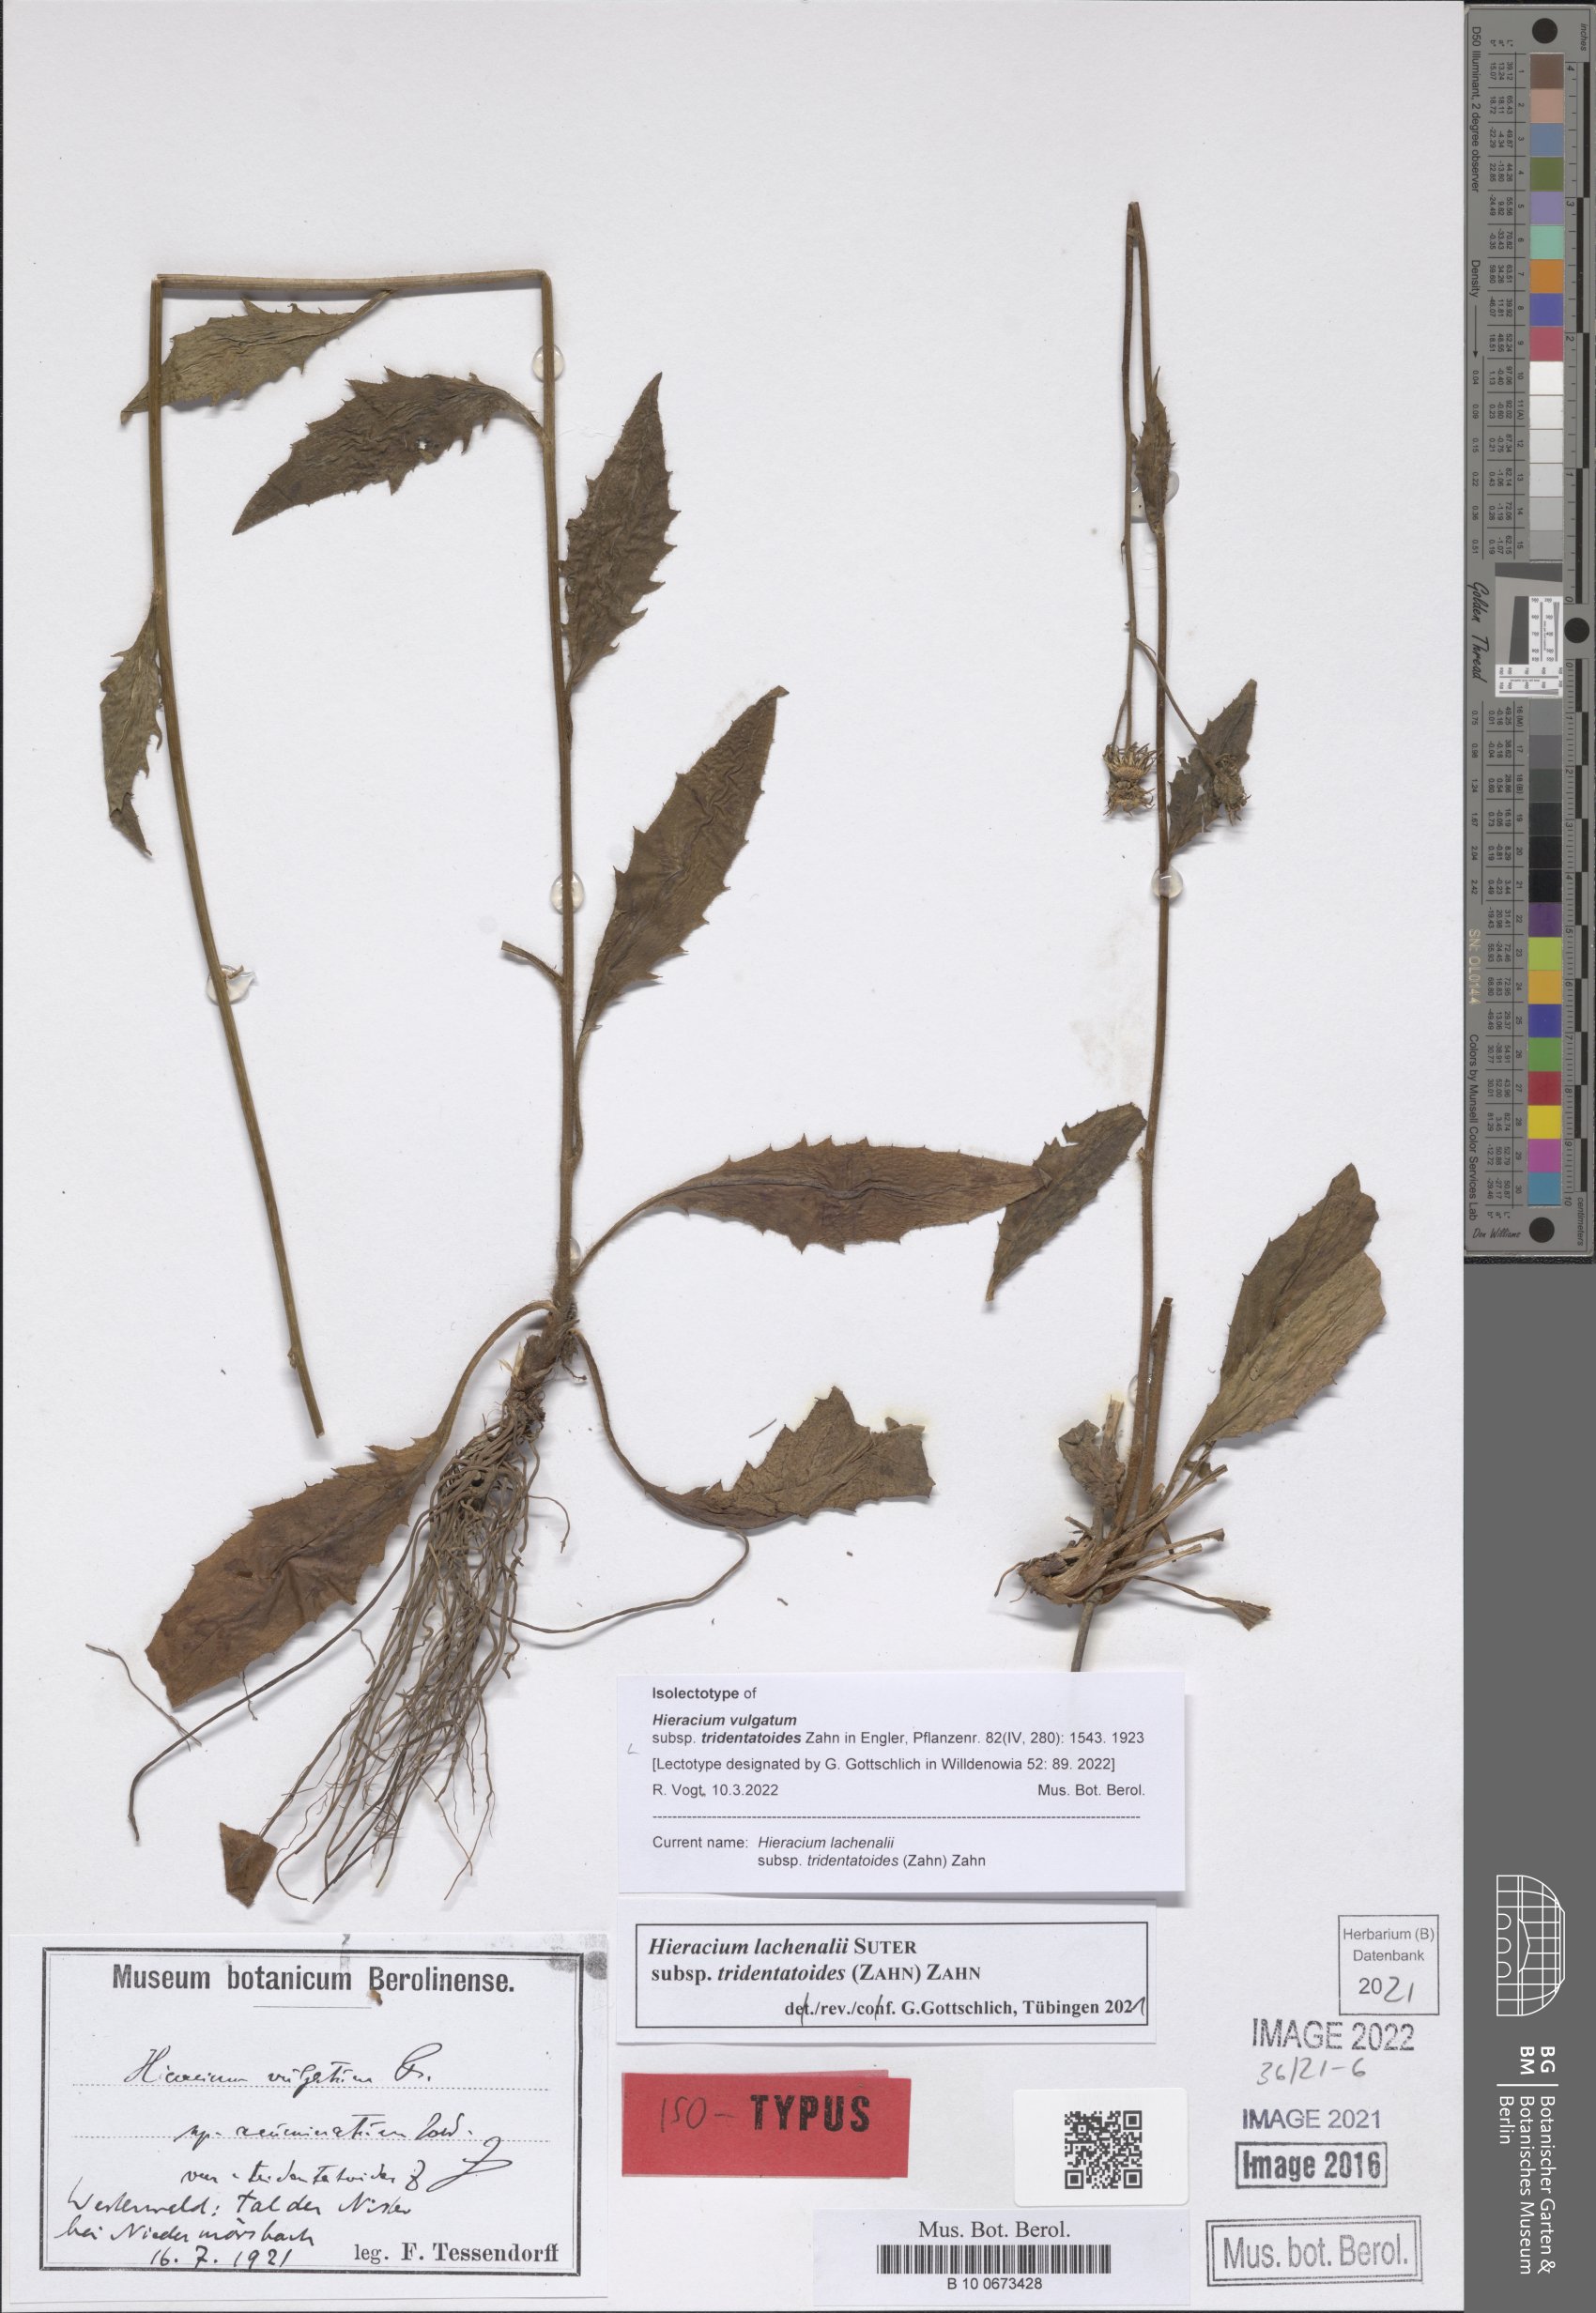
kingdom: Plantae
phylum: Tracheophyta
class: Magnoliopsida
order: Asterales
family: Asteraceae
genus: Hieracium
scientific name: Hieracium lachenalii
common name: Common hawkweed
